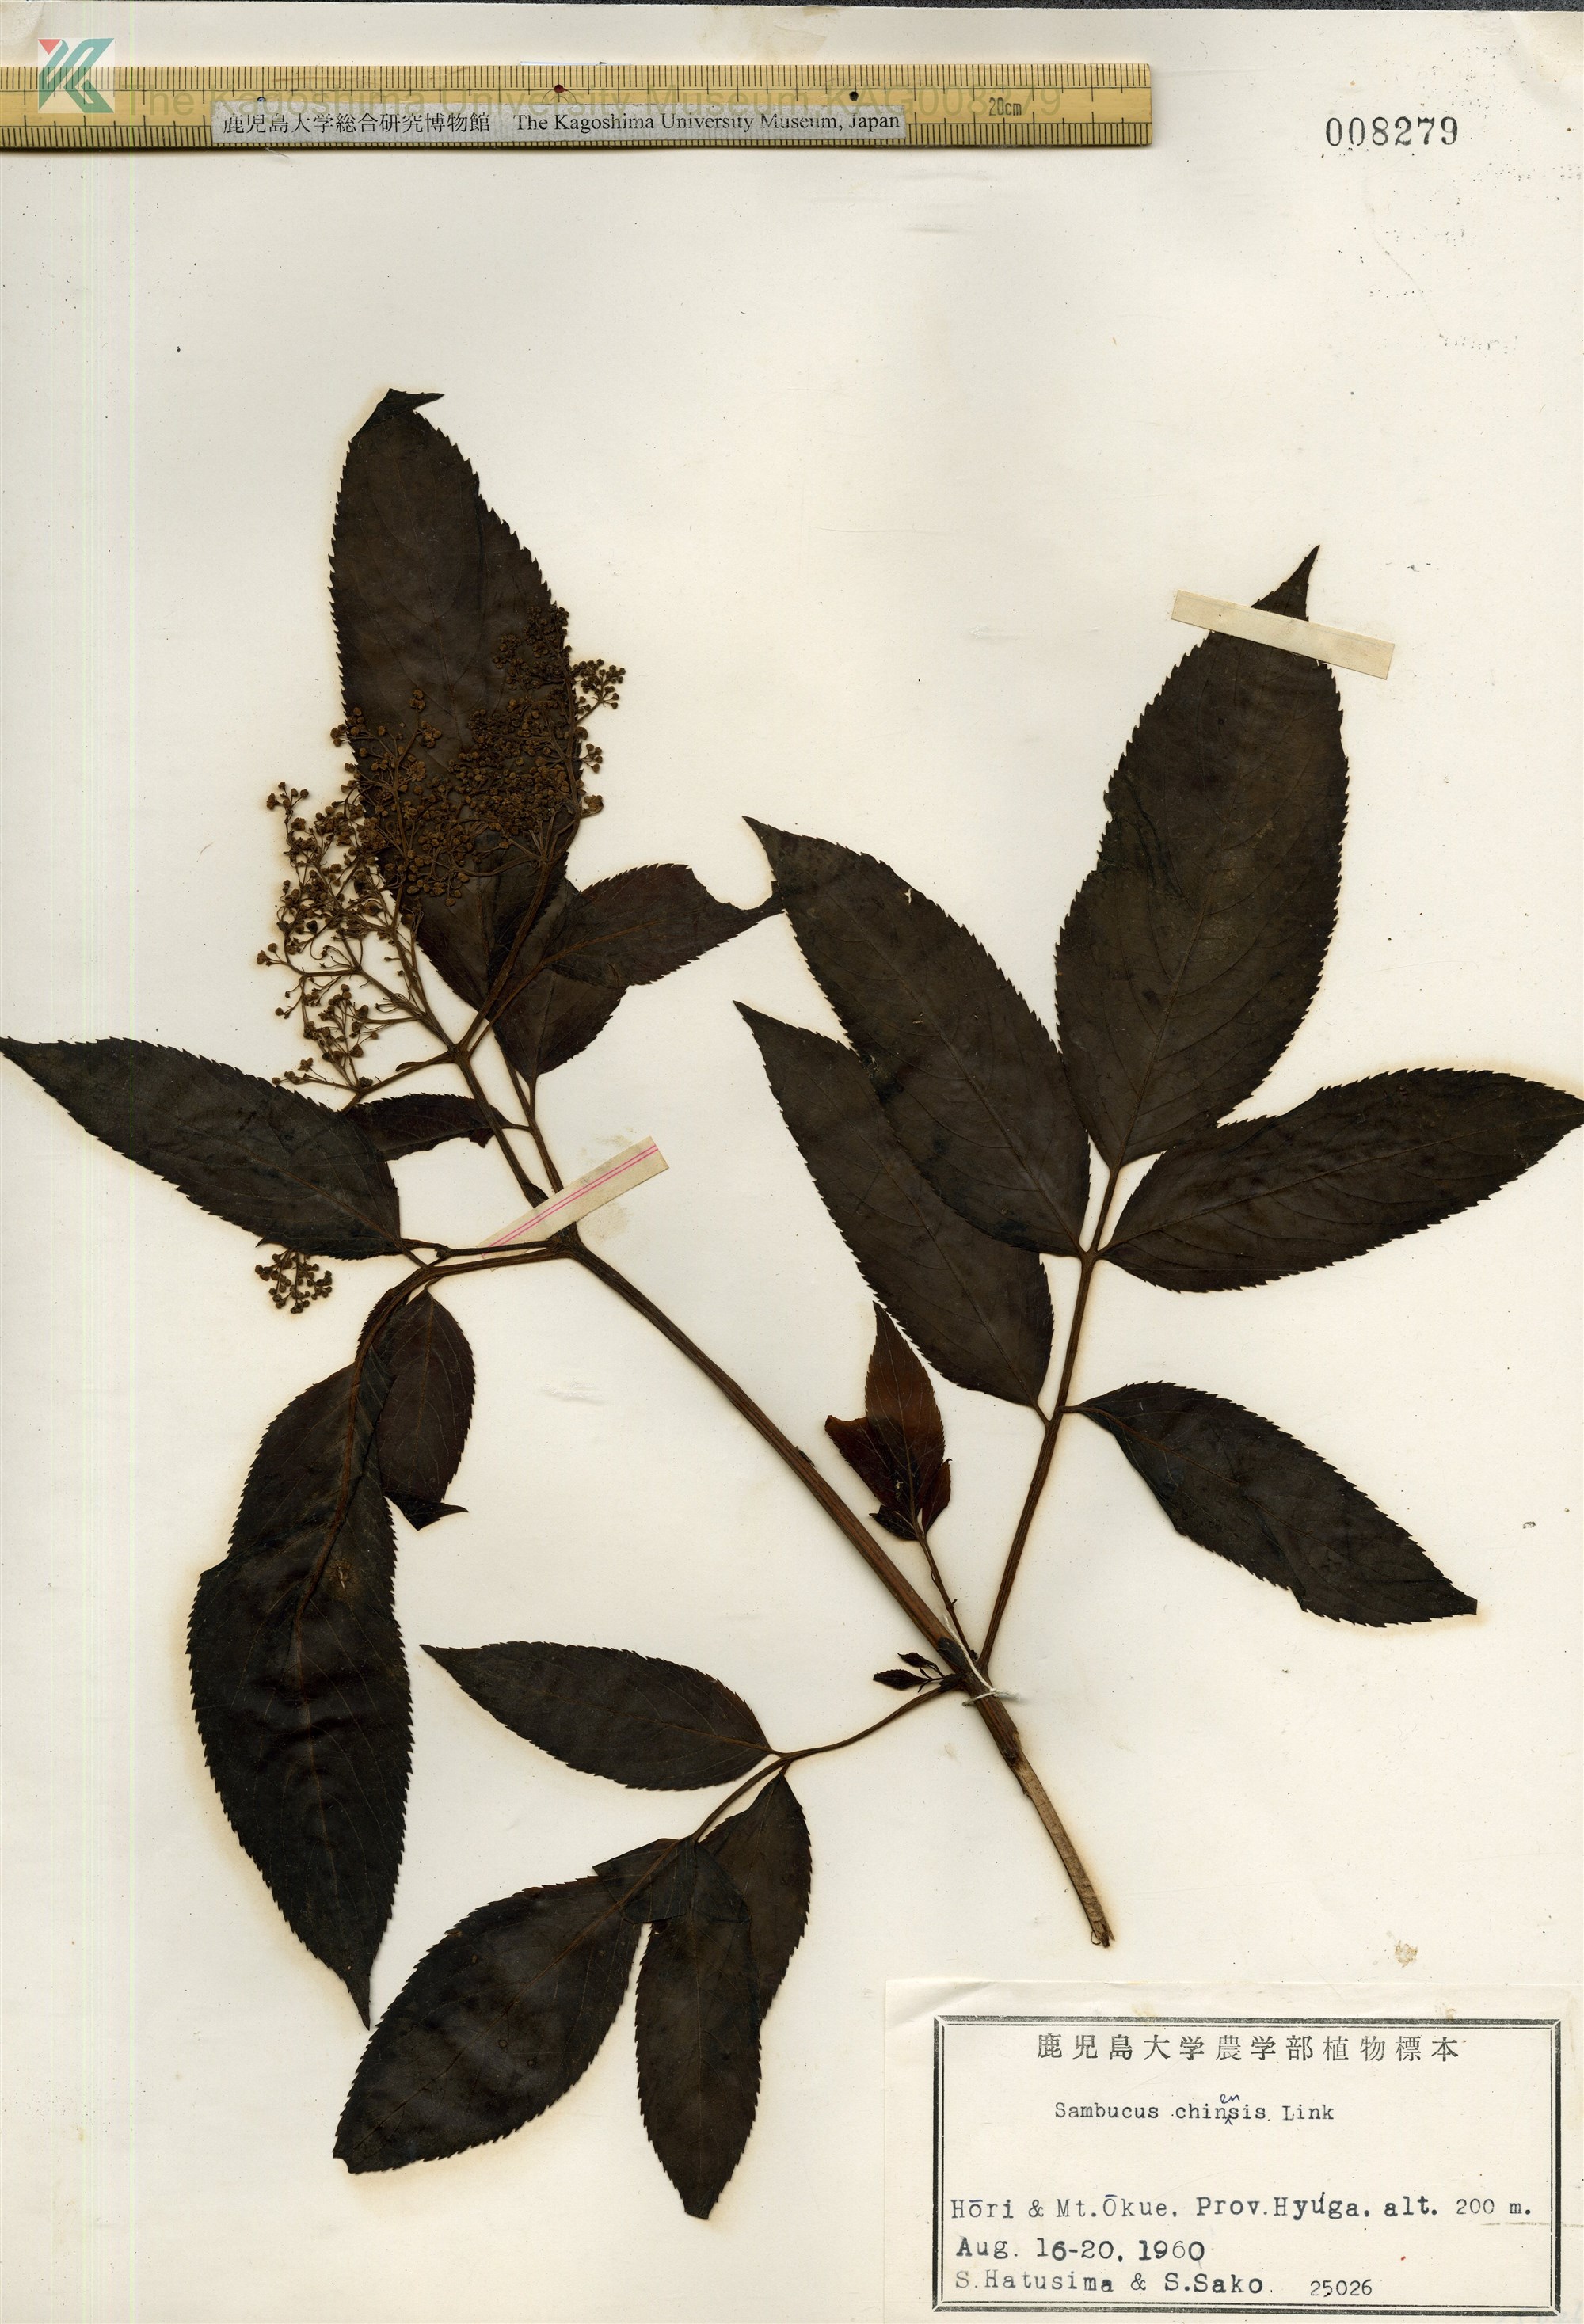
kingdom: Plantae
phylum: Tracheophyta
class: Magnoliopsida
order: Dipsacales
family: Viburnaceae
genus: Sambucus
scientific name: Sambucus javanica
